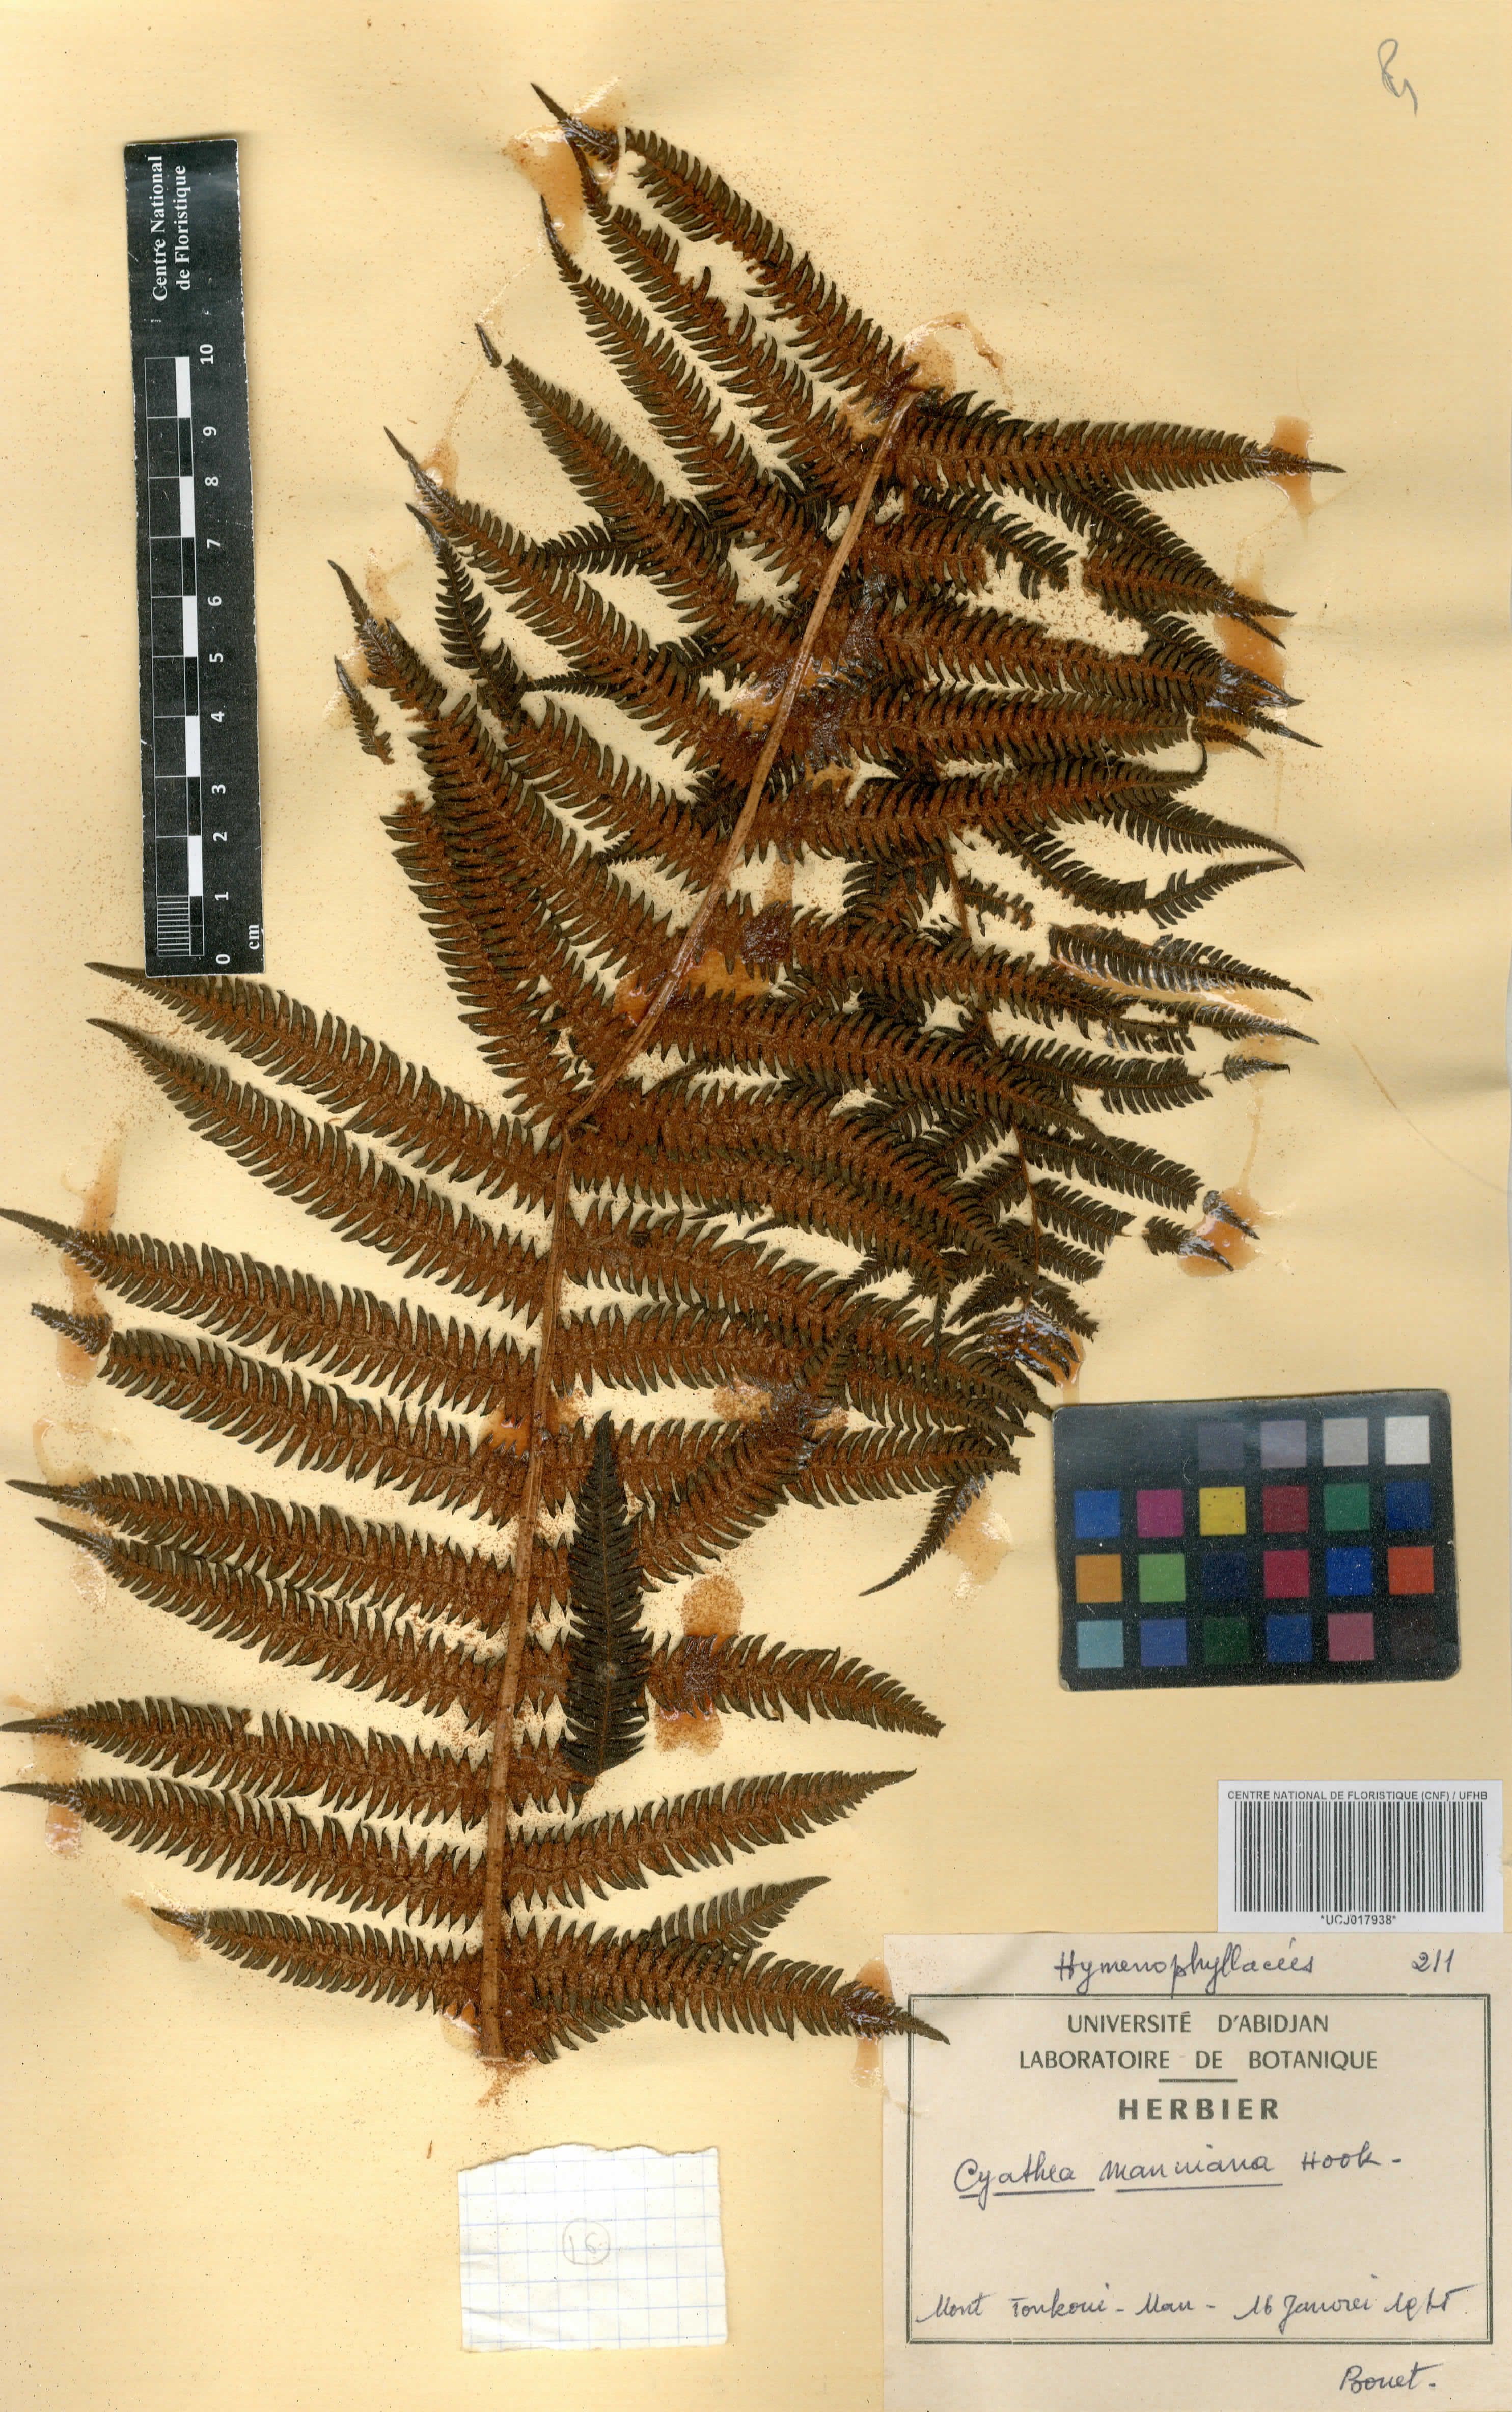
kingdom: Plantae
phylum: Tracheophyta
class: Polypodiopsida
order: Cyatheales
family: Cyatheaceae
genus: Alsophila
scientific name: Alsophila manniana
